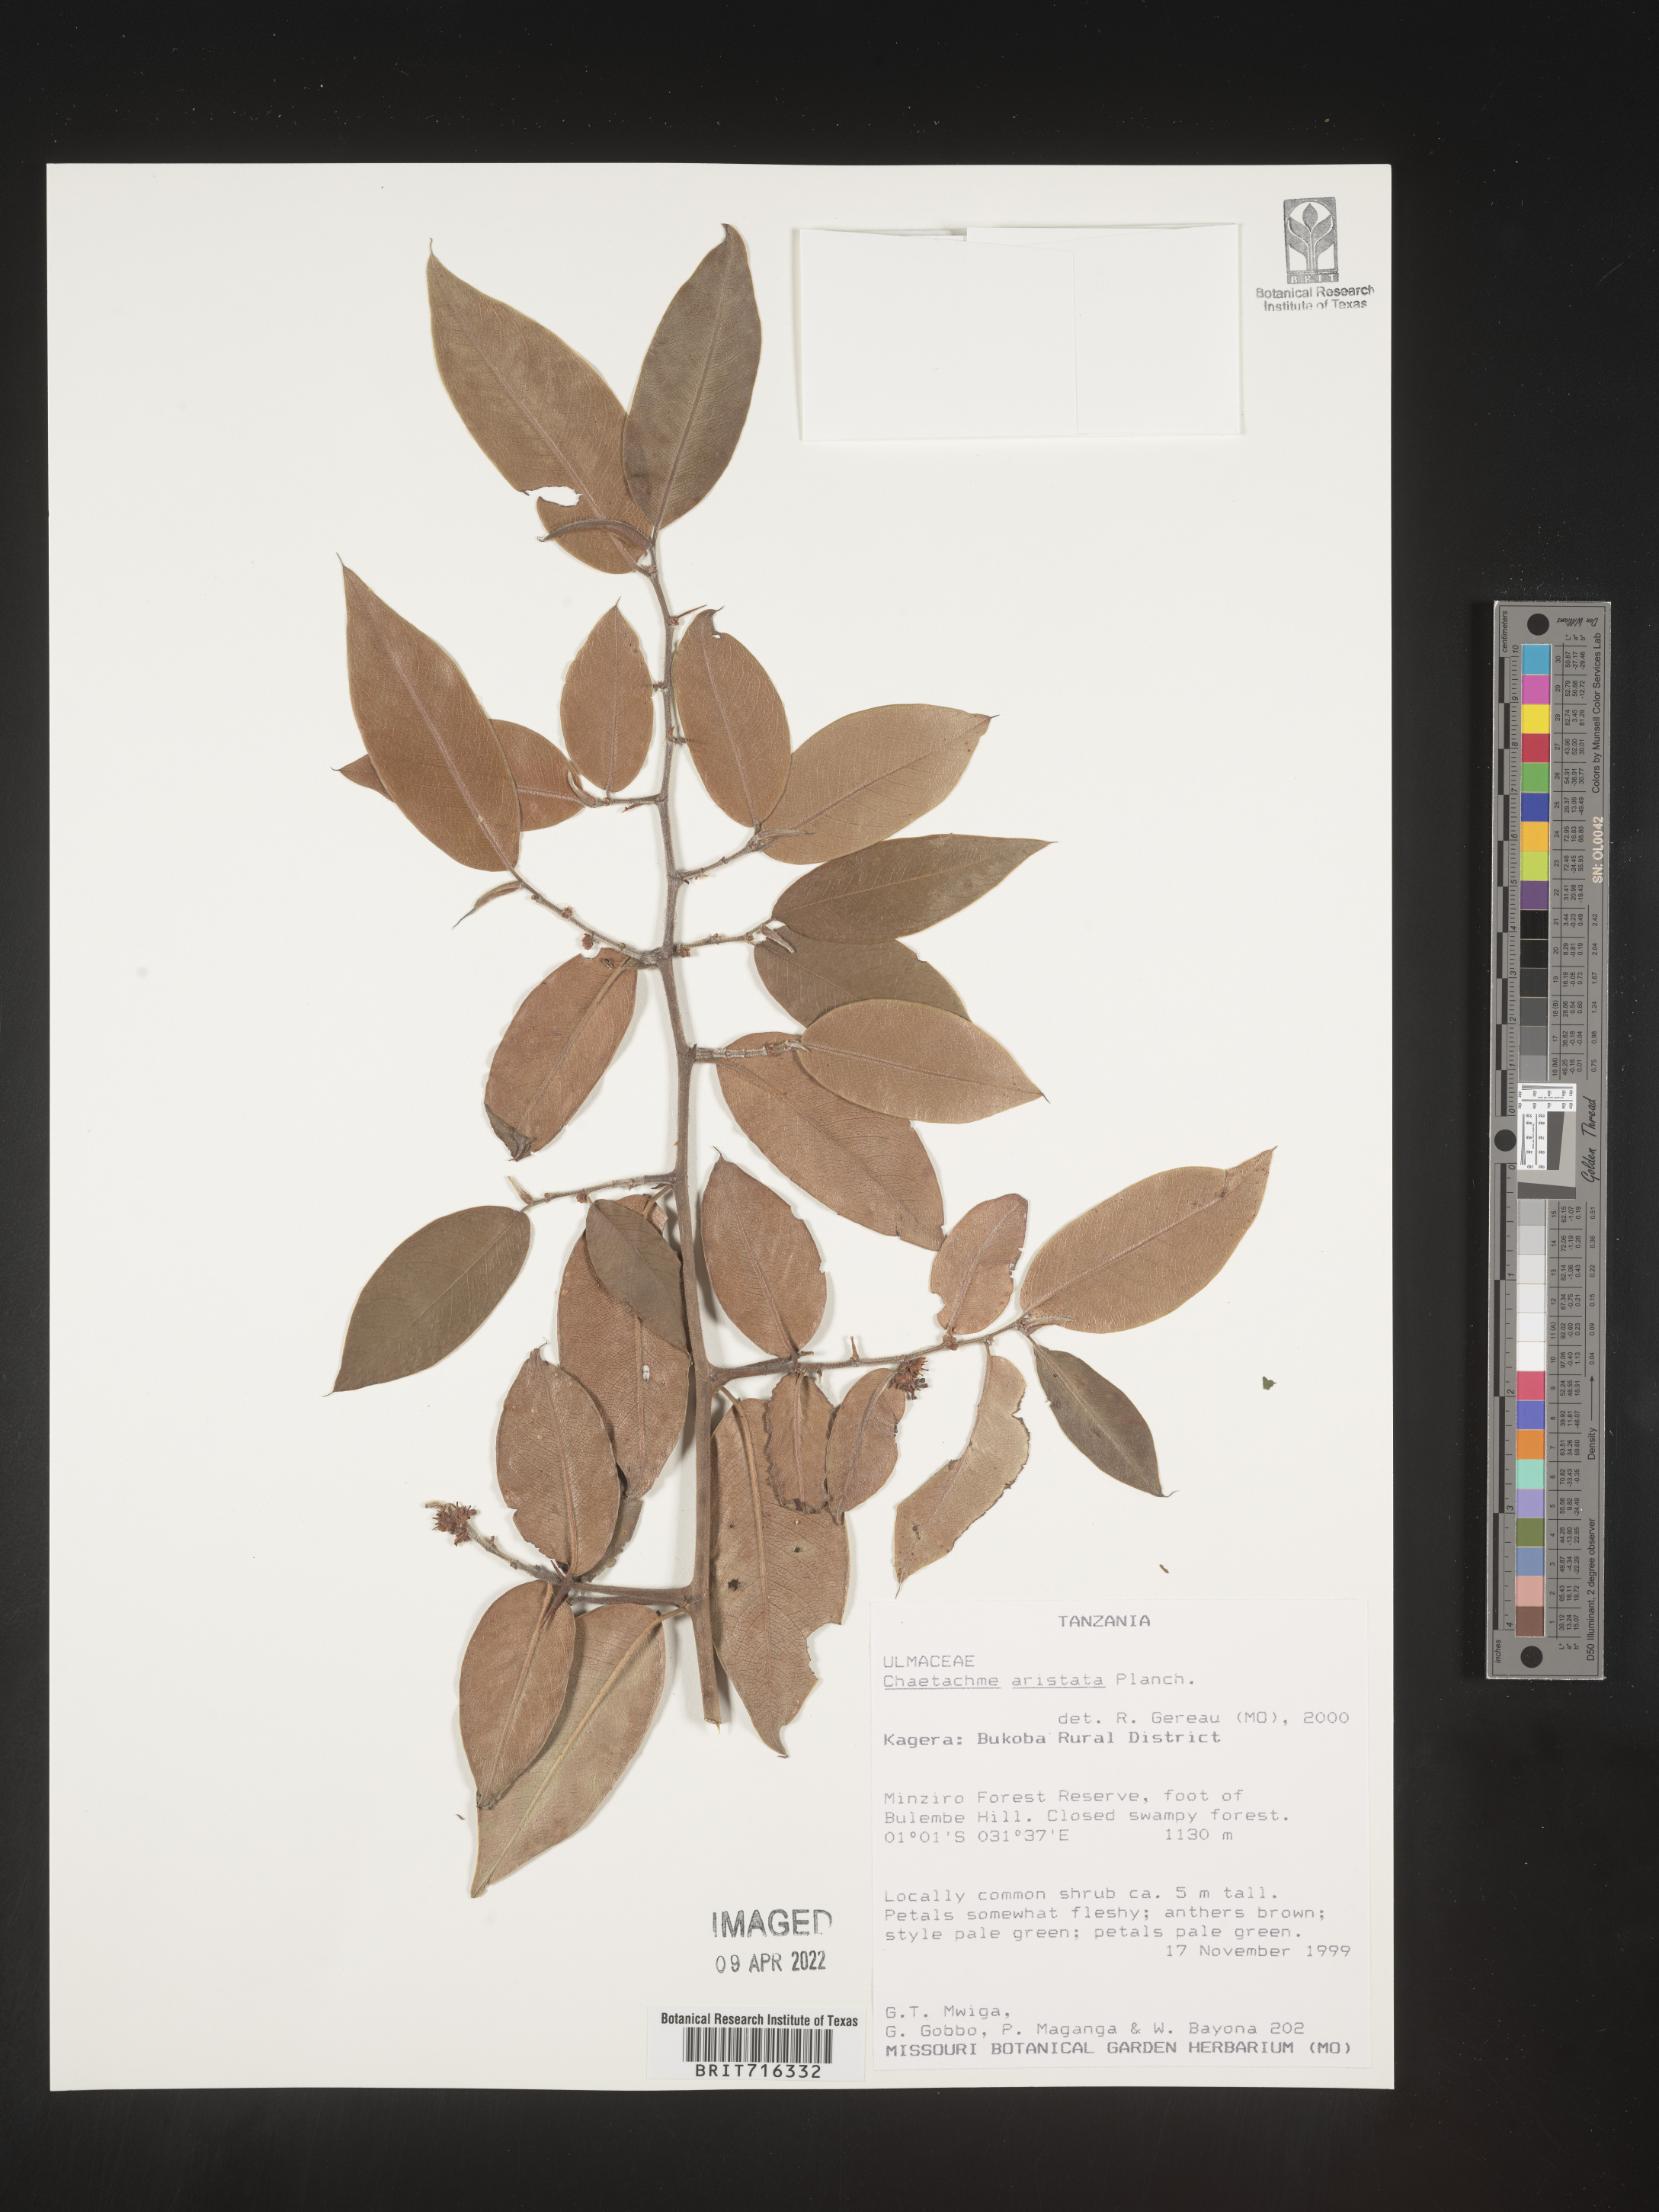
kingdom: Plantae
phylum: Tracheophyta
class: Magnoliopsida
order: Rosales
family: Cannabaceae
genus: Chaetachme
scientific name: Chaetachme
